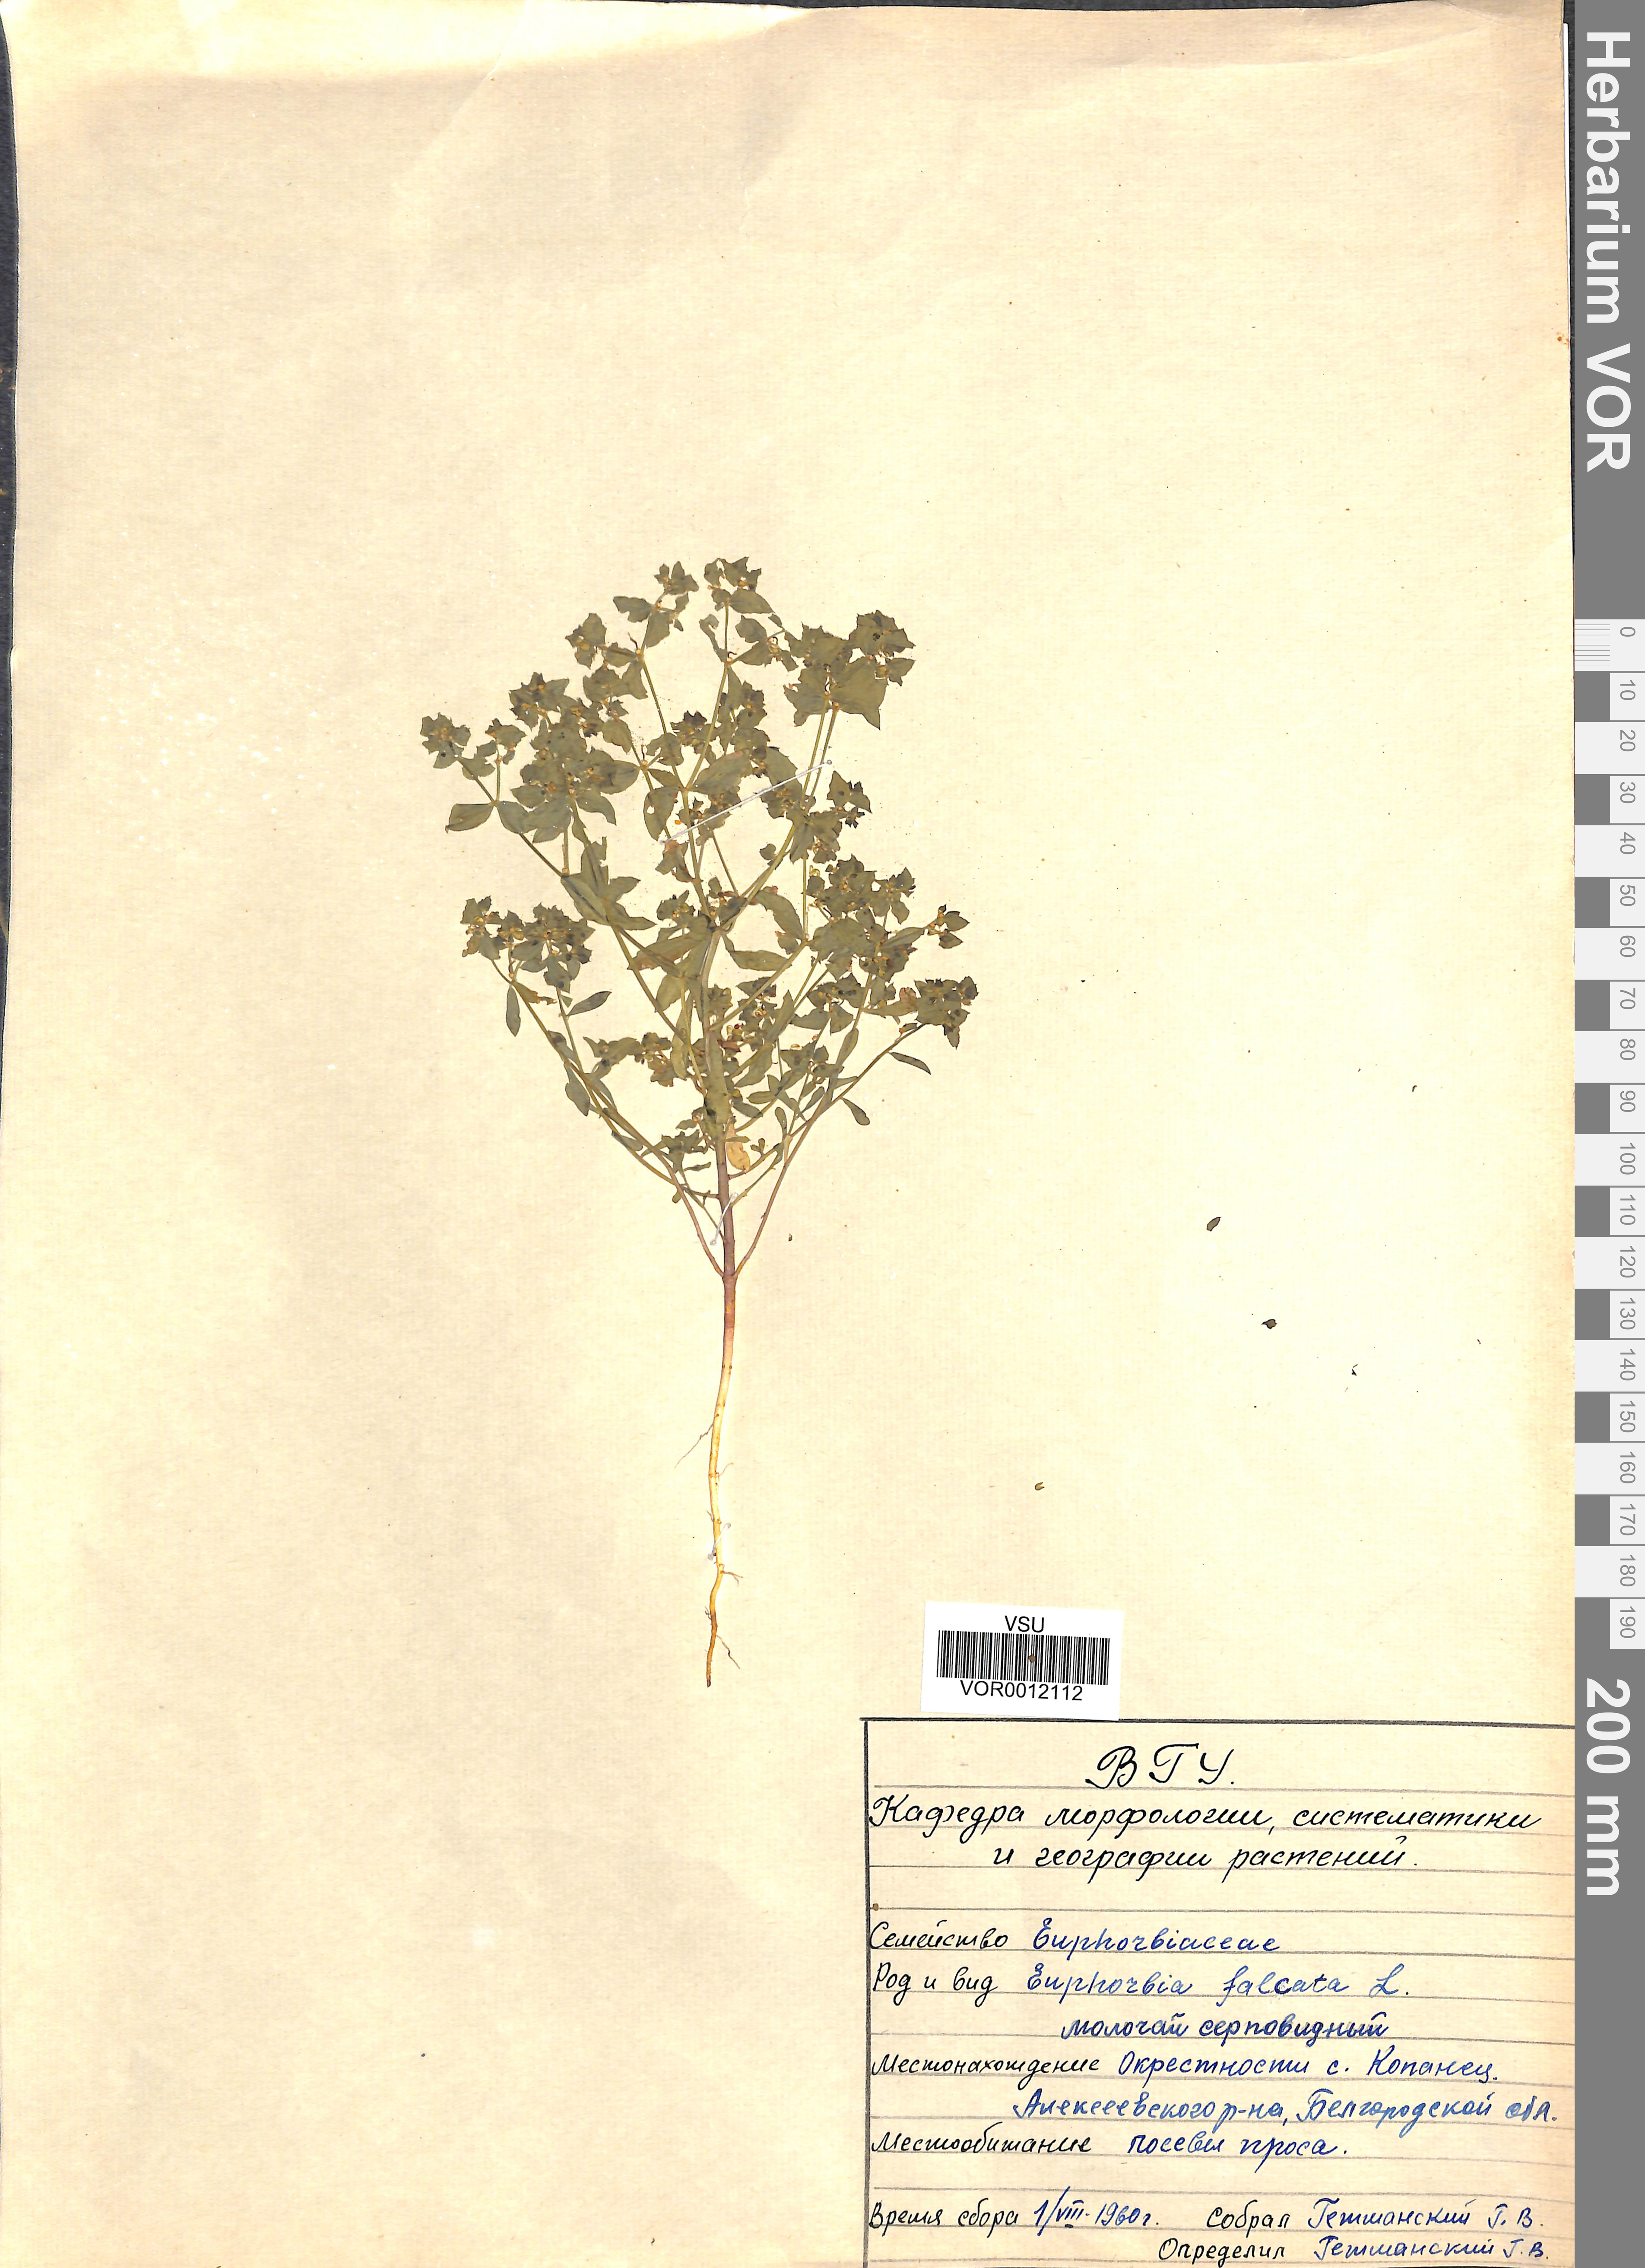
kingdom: Plantae
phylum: Tracheophyta
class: Magnoliopsida
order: Malpighiales
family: Euphorbiaceae
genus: Euphorbia
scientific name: Euphorbia falcata
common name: Sickle spurge
